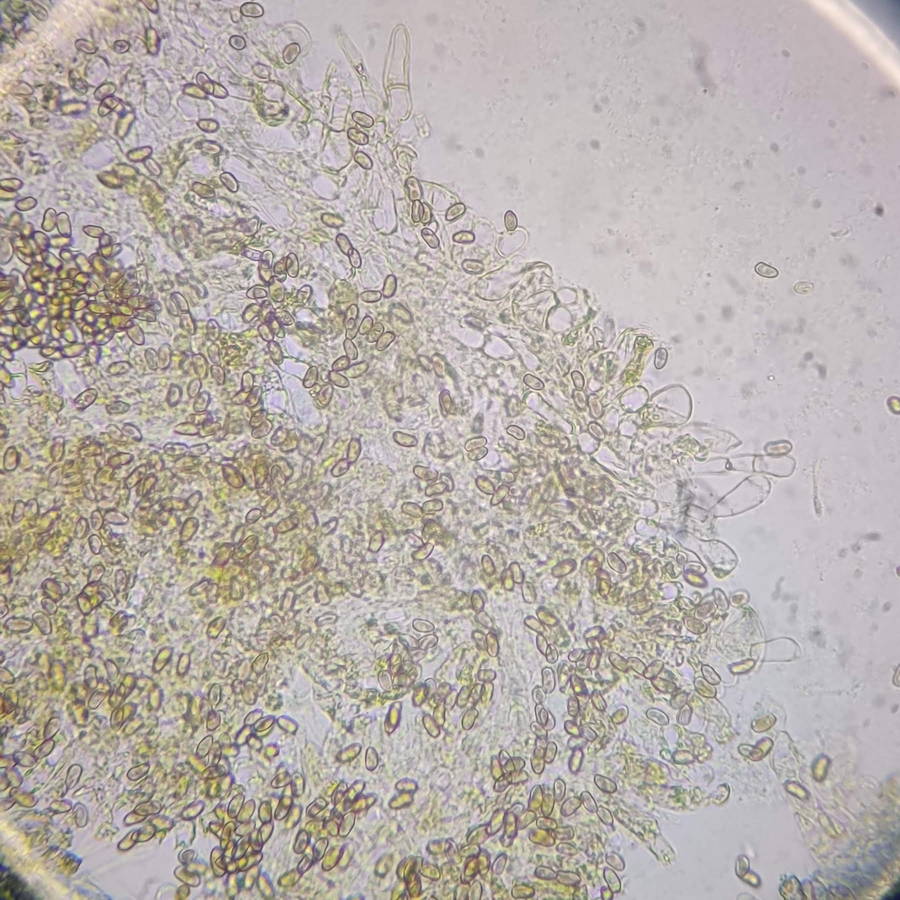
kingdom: Fungi
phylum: Basidiomycota
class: Agaricomycetes
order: Agaricales
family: Inocybaceae
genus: Mallocybe
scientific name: Mallocybe agardhii
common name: Agardhs trævlhat
